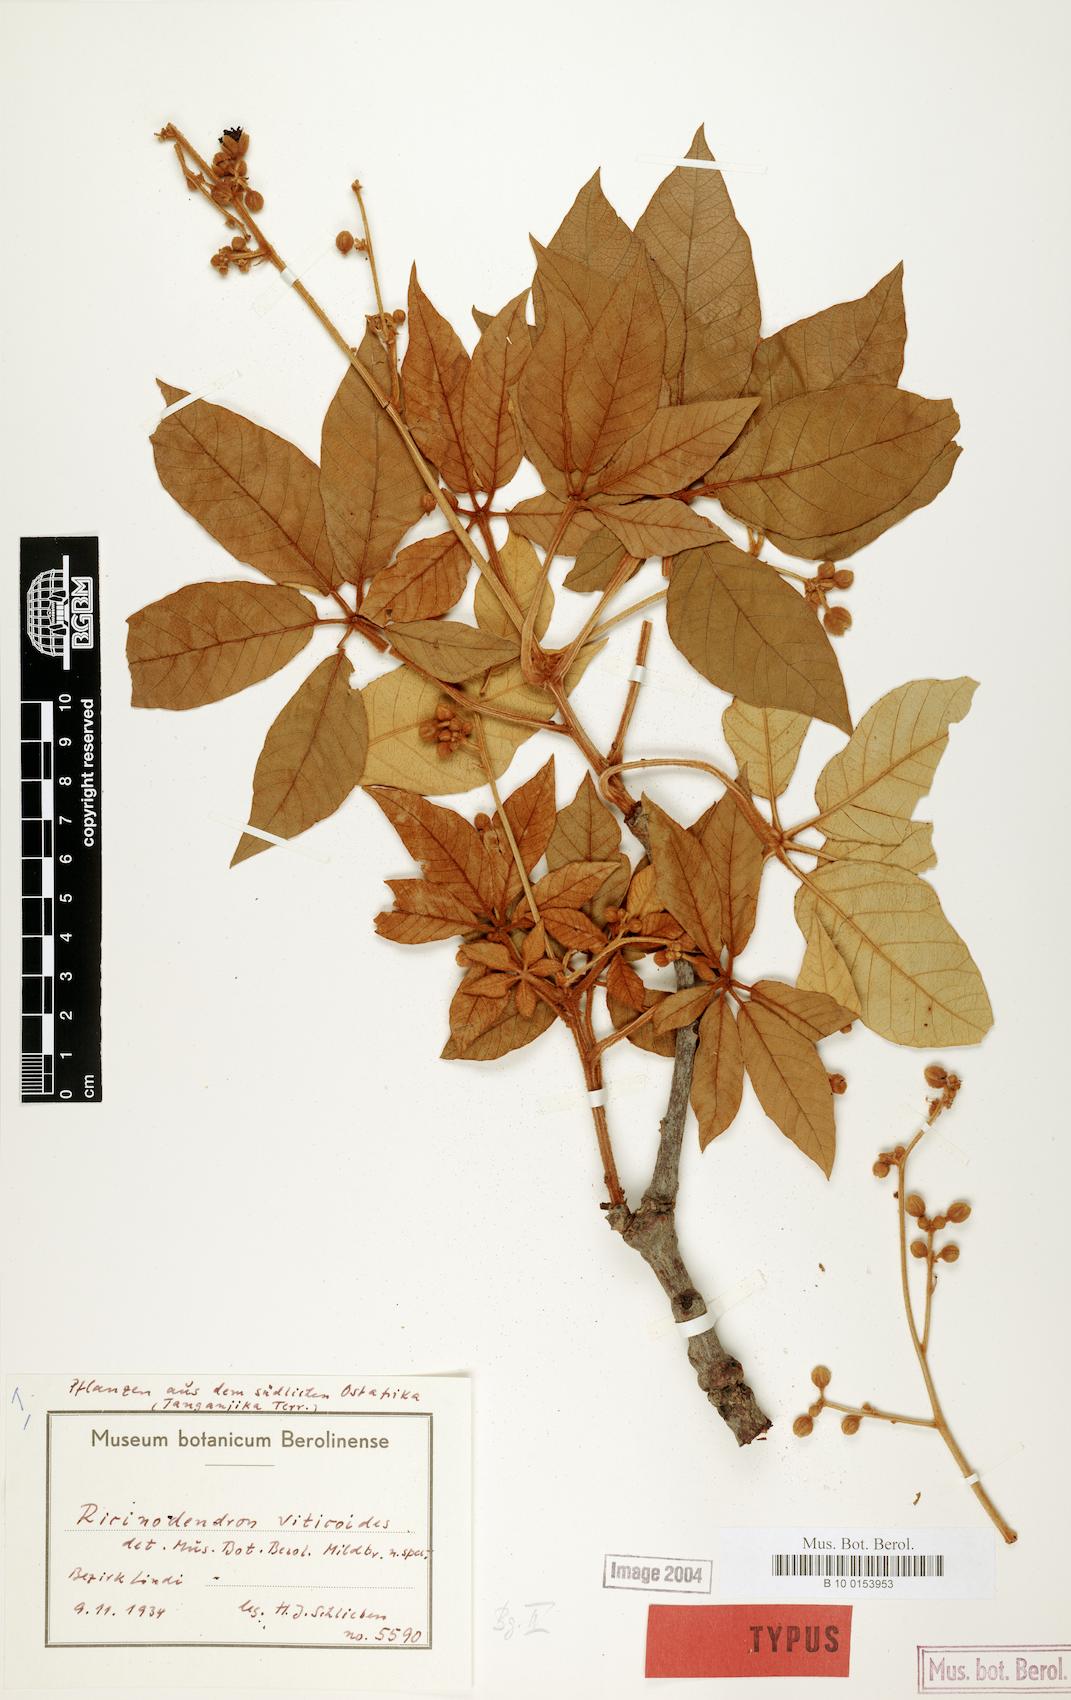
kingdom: Plantae
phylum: Tracheophyta
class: Magnoliopsida
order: Malpighiales
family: Euphorbiaceae
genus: Schinziophyton
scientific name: Schinziophyton rautanenii
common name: Manketti
